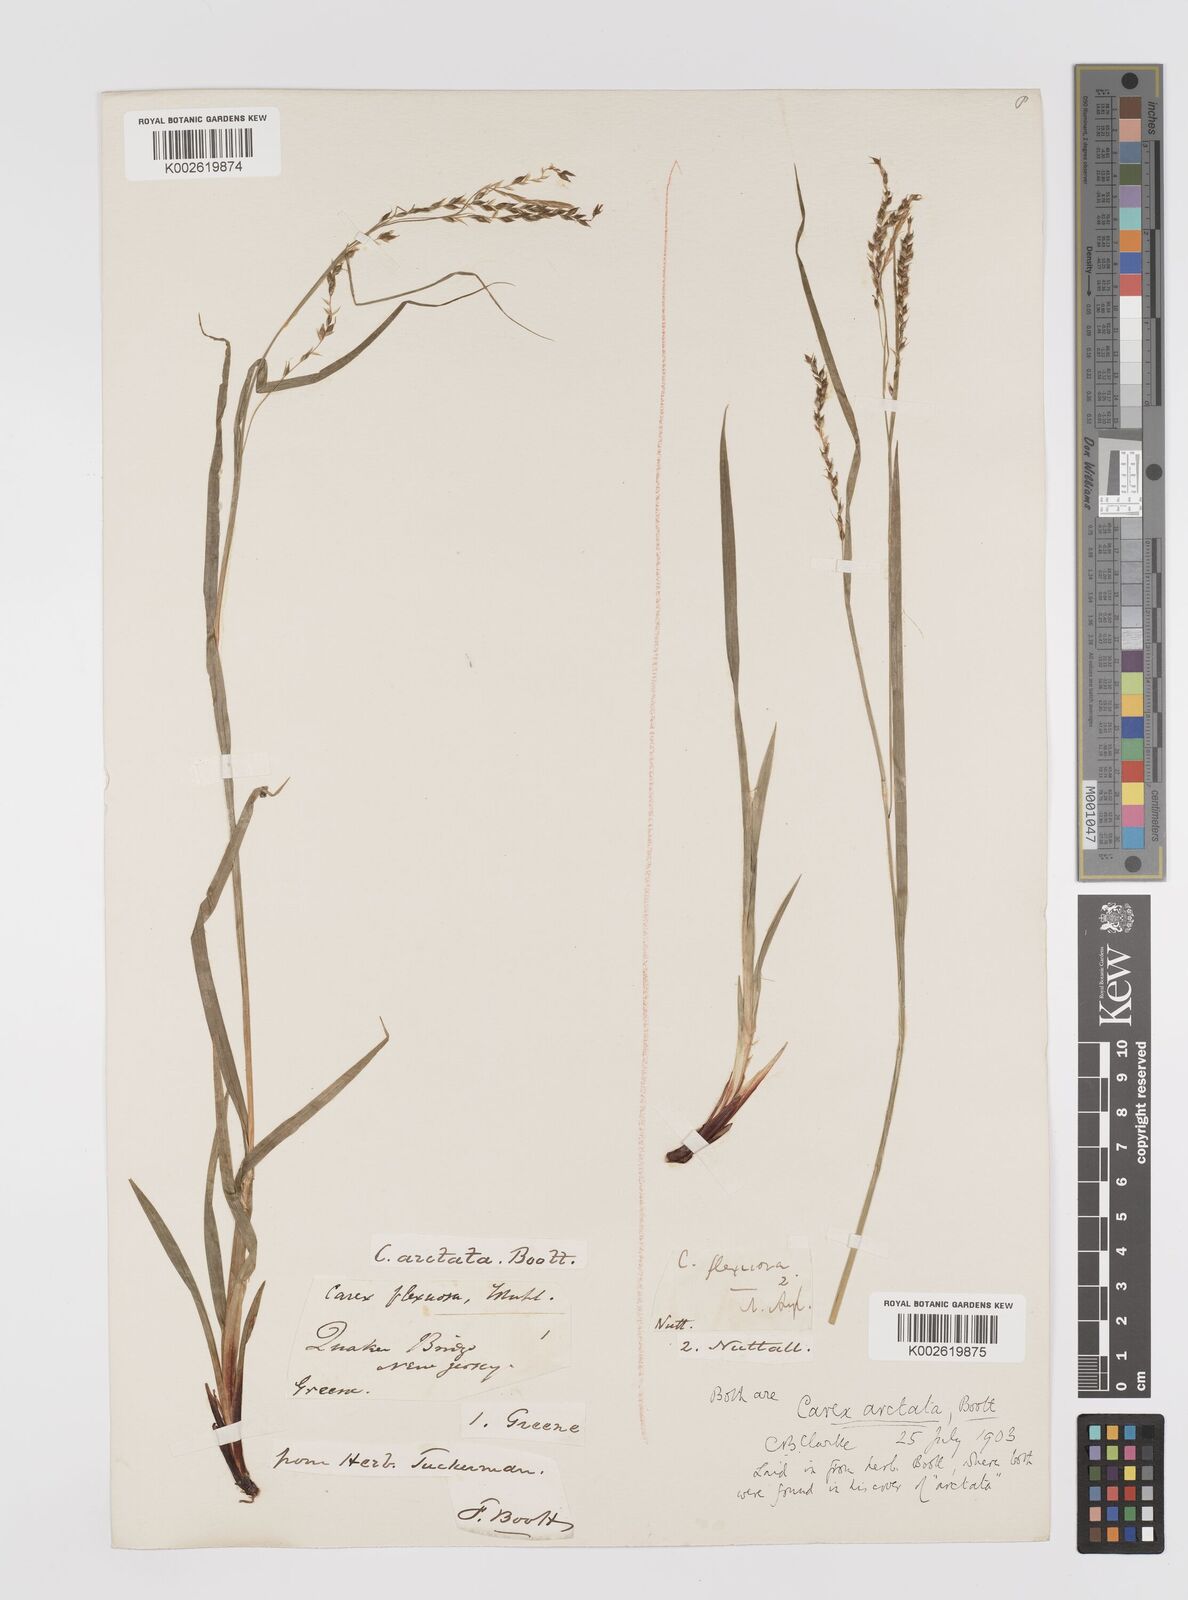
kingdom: Plantae
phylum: Tracheophyta
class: Liliopsida
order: Poales
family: Cyperaceae
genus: Carex
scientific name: Carex arctata
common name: Black sedge
